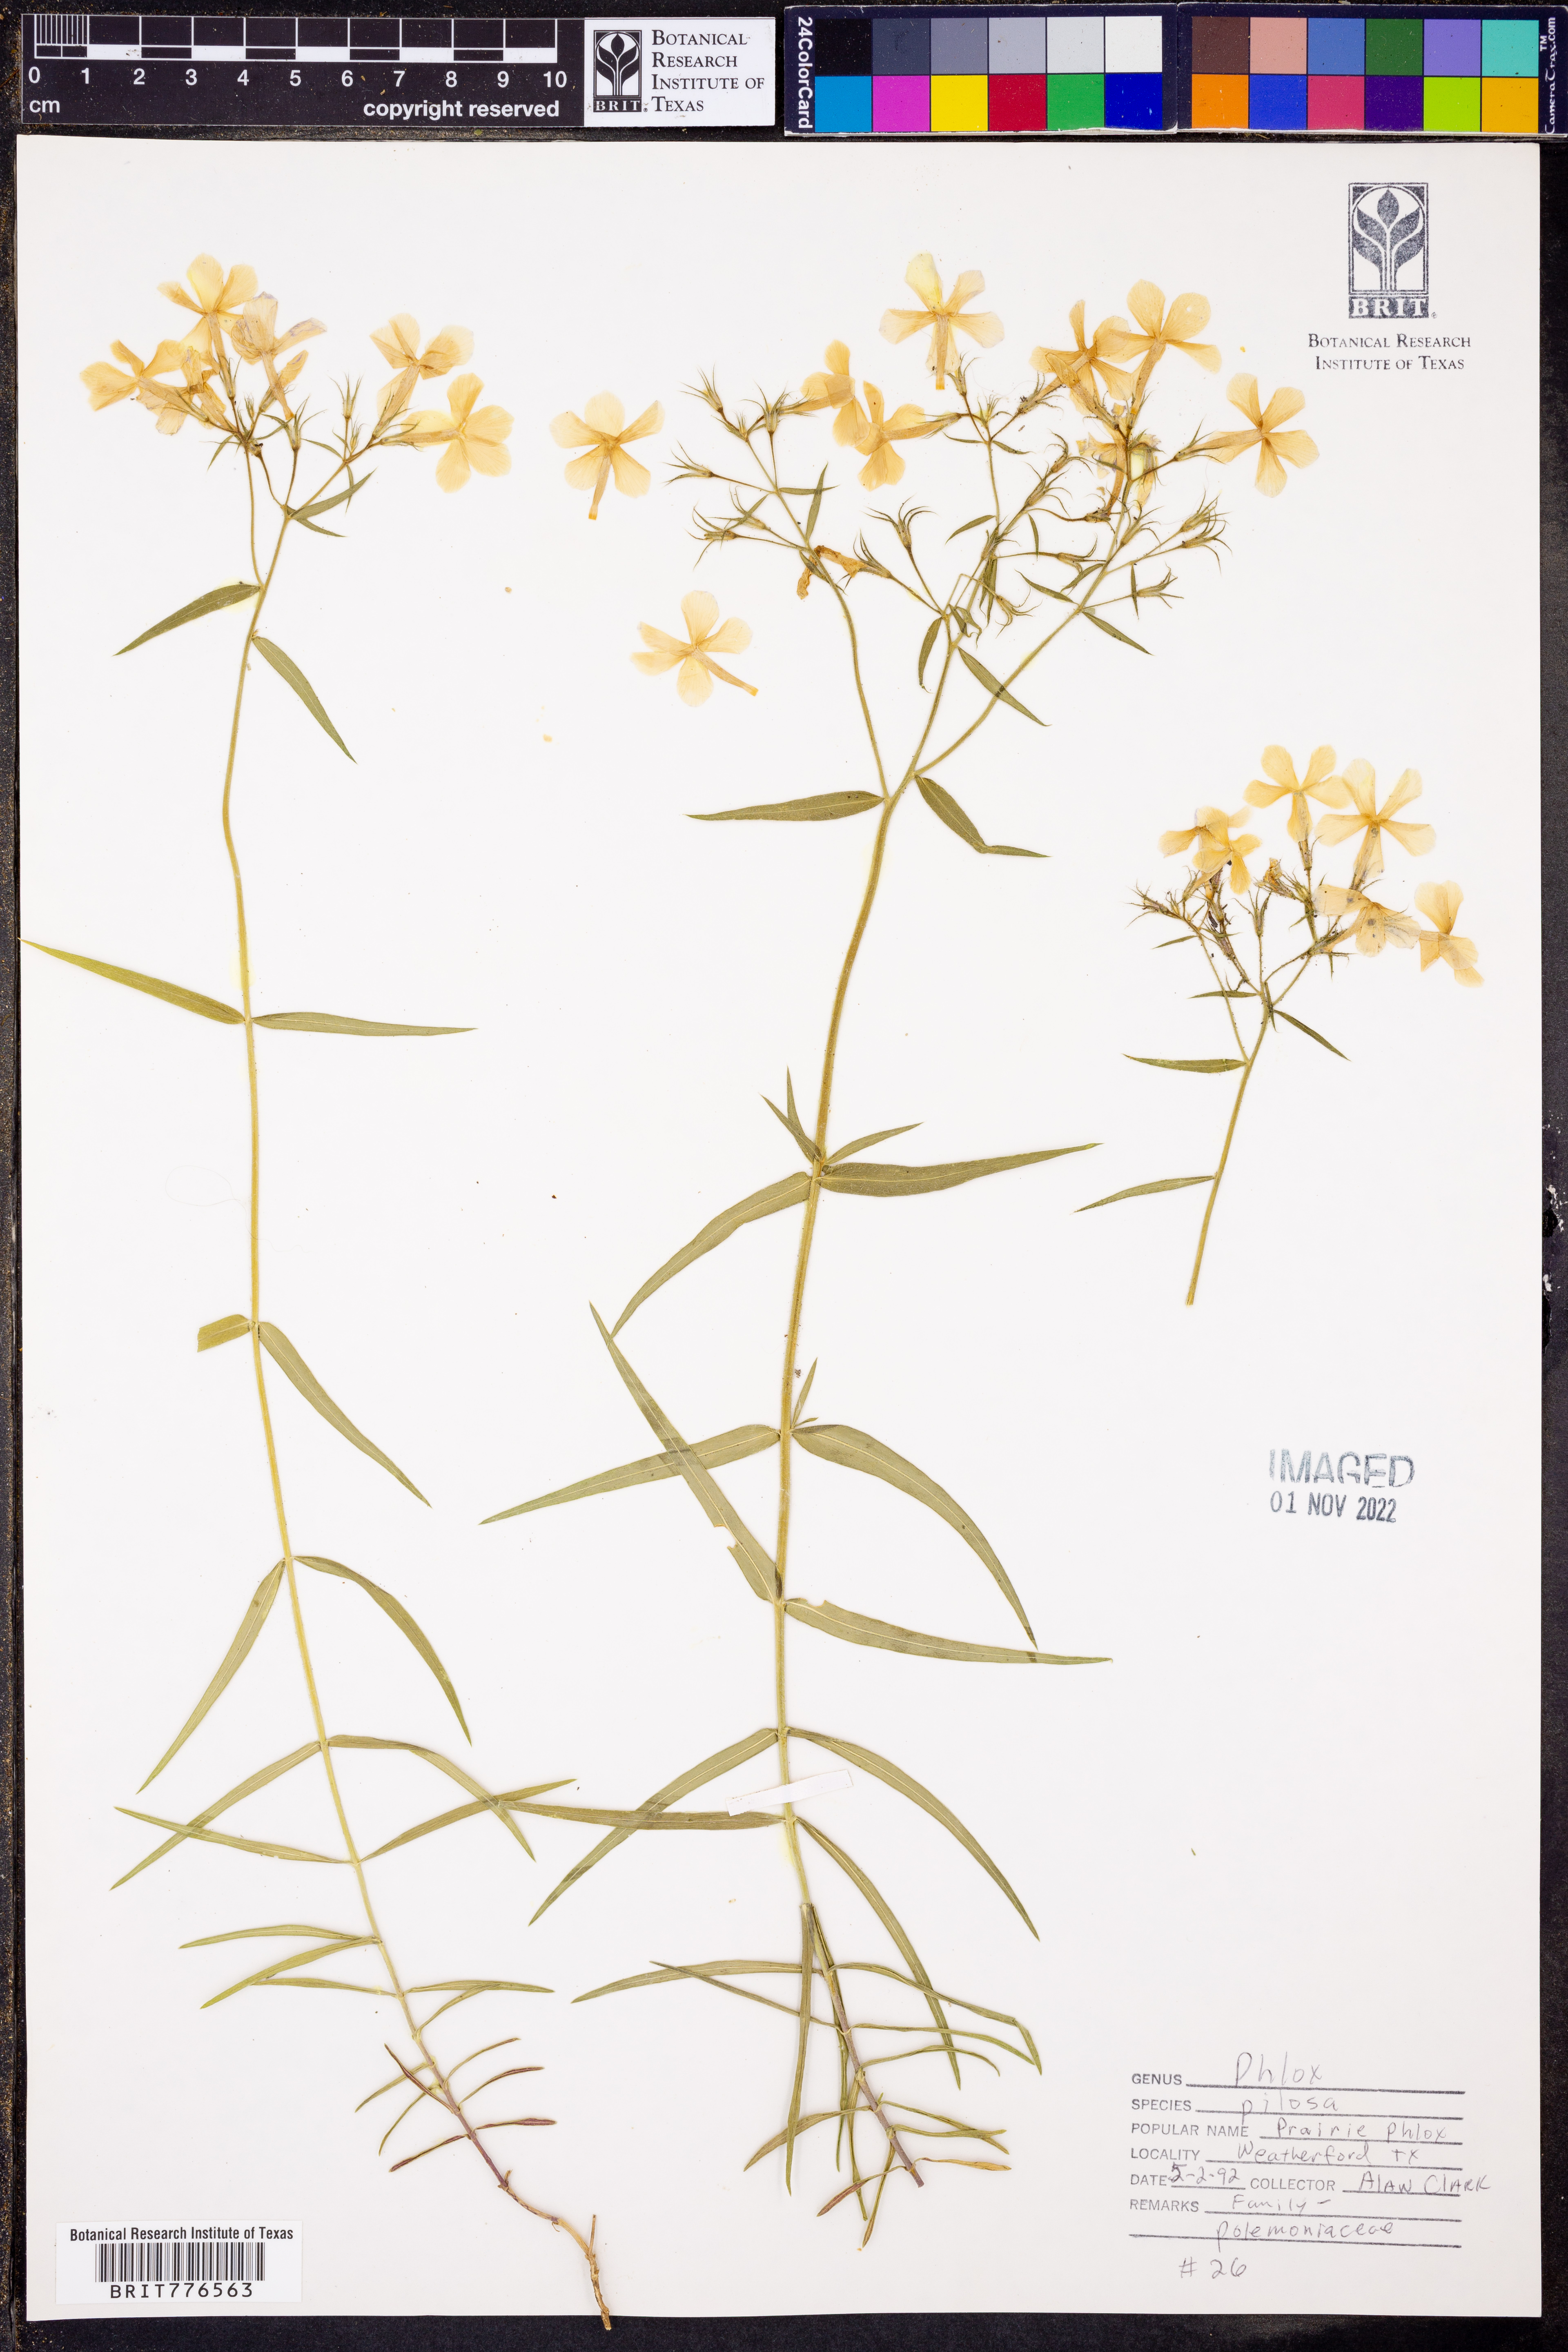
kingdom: Plantae
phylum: Tracheophyta
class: Magnoliopsida
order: Ericales
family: Polemoniaceae
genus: Phlox
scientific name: Phlox pilosa
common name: Prairie phlox
